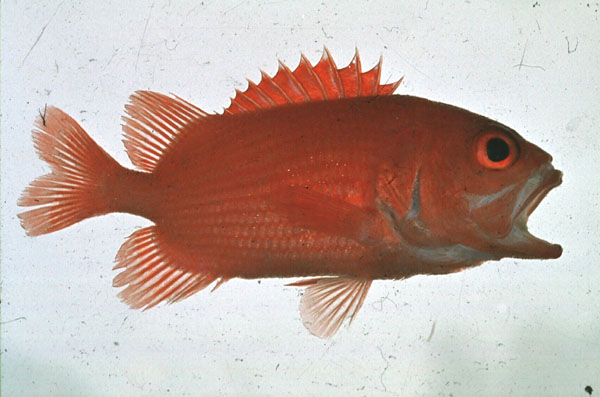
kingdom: Animalia
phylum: Chordata
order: Beryciformes
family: Holocentridae
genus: Plectrypops
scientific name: Plectrypops lima
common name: Cardinal soldierfish
